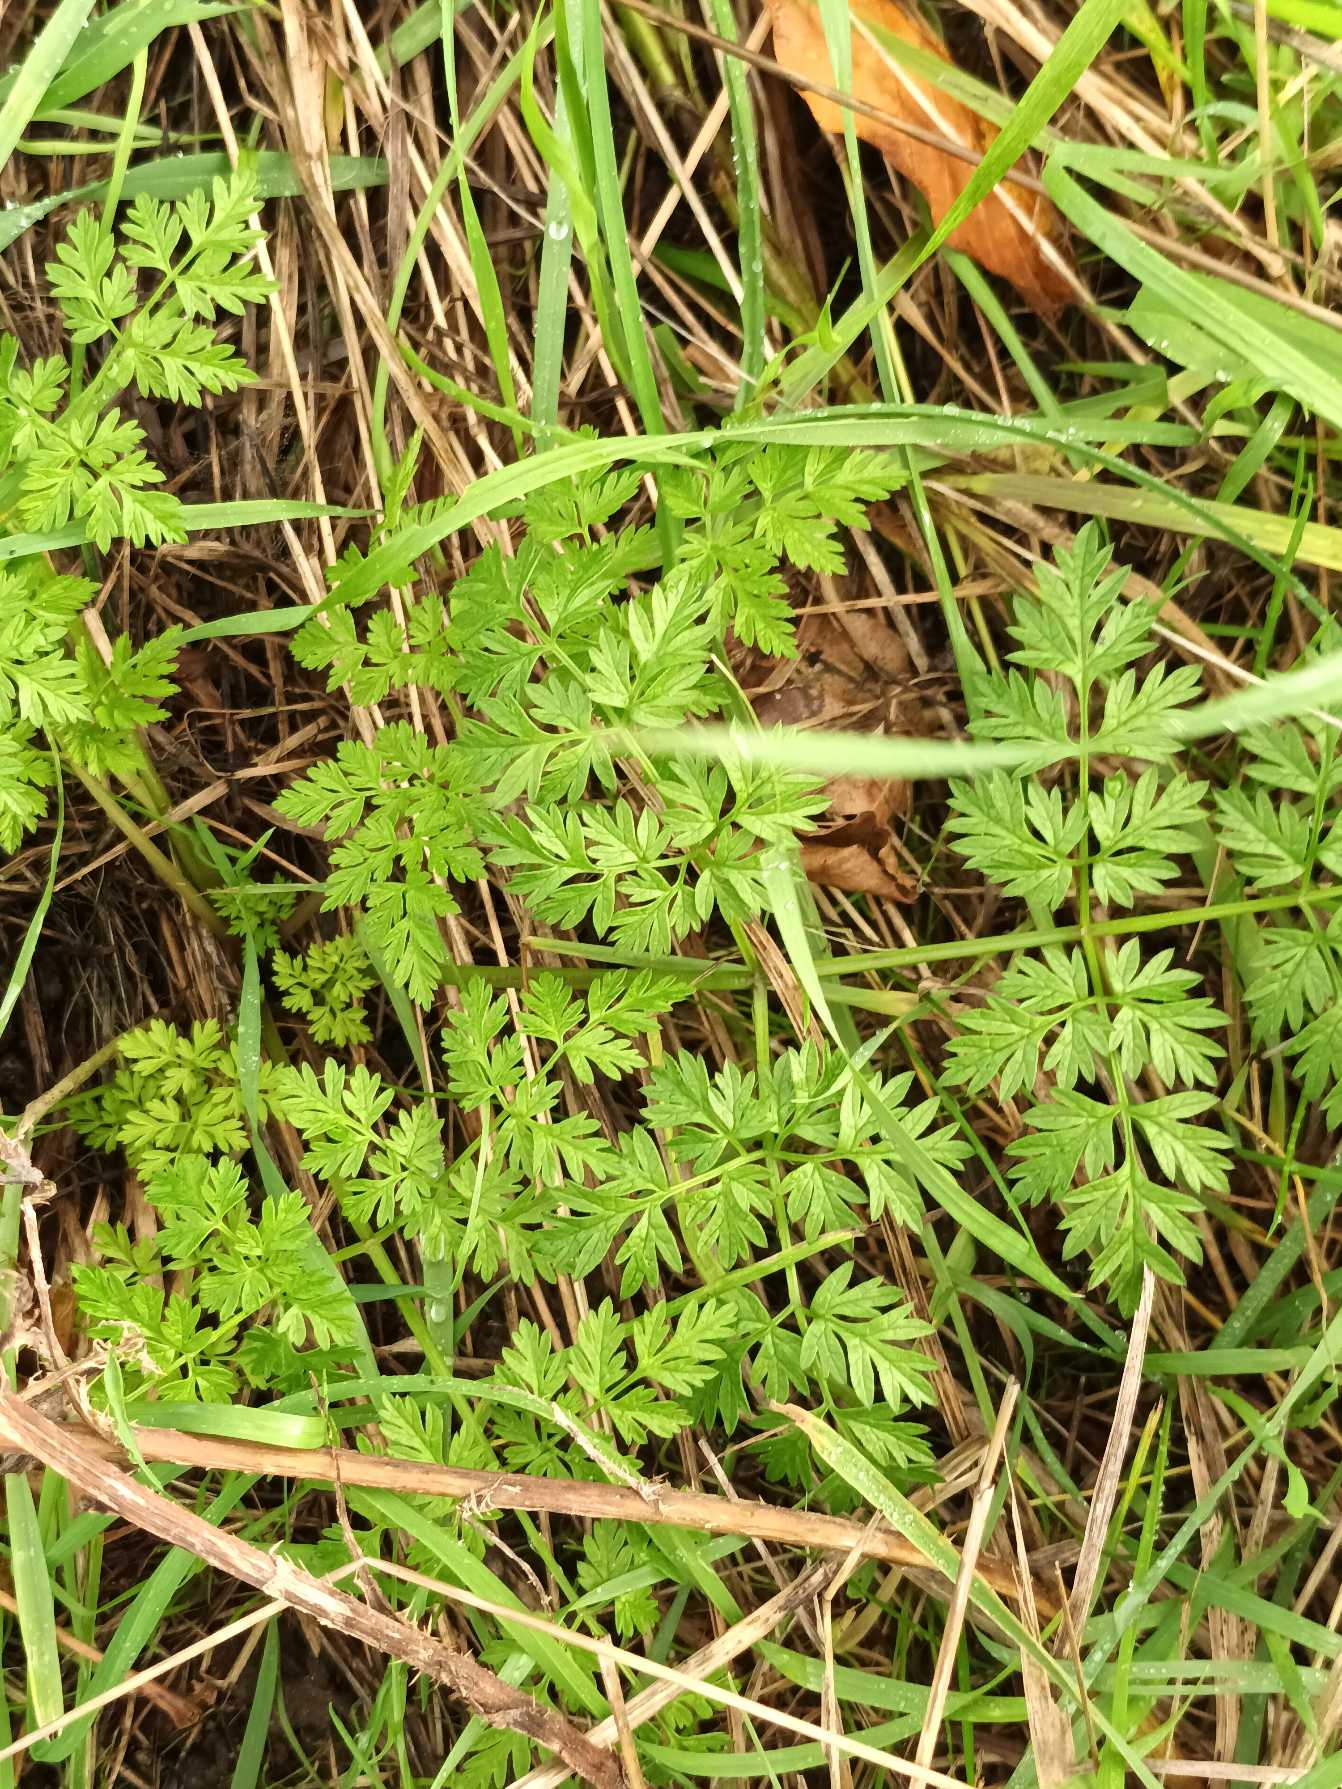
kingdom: Plantae
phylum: Tracheophyta
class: Magnoliopsida
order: Apiales
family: Apiaceae
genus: Anthriscus
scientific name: Anthriscus sylvestris
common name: Vild kørvel
